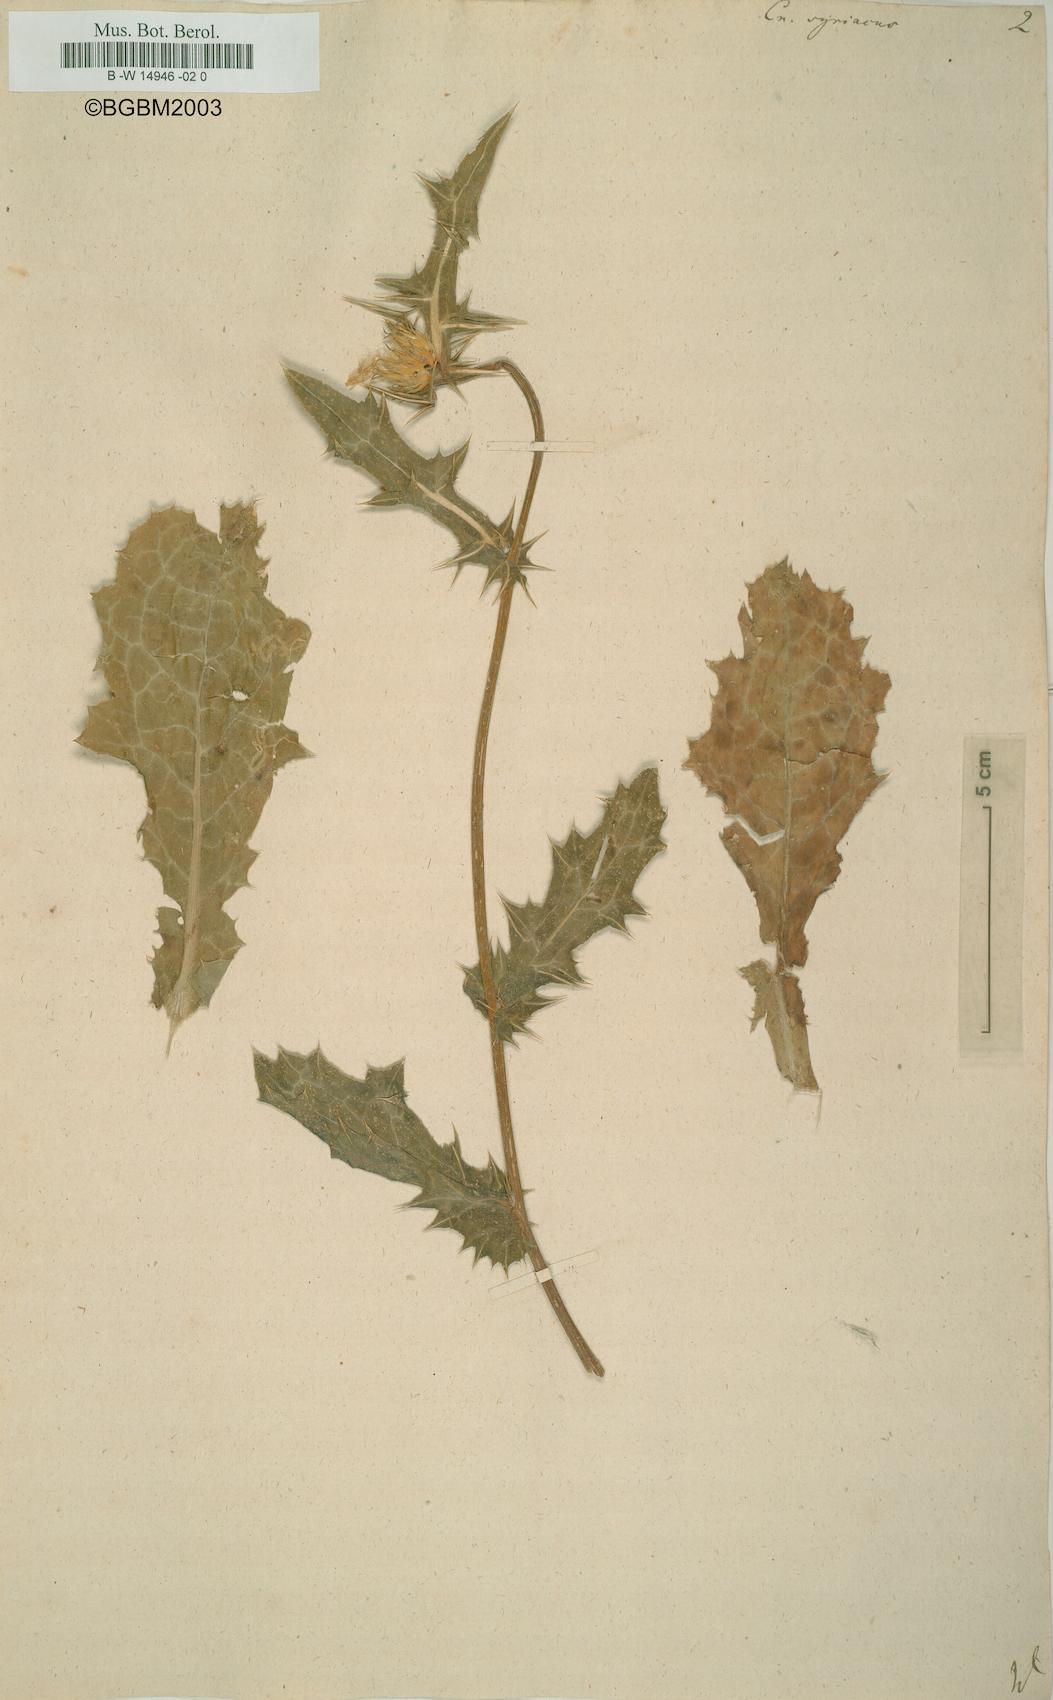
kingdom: Plantae
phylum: Tracheophyta
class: Magnoliopsida
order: Asterales
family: Asteraceae
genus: Notobasis
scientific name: Notobasis syriaca
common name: Syrian thistle
